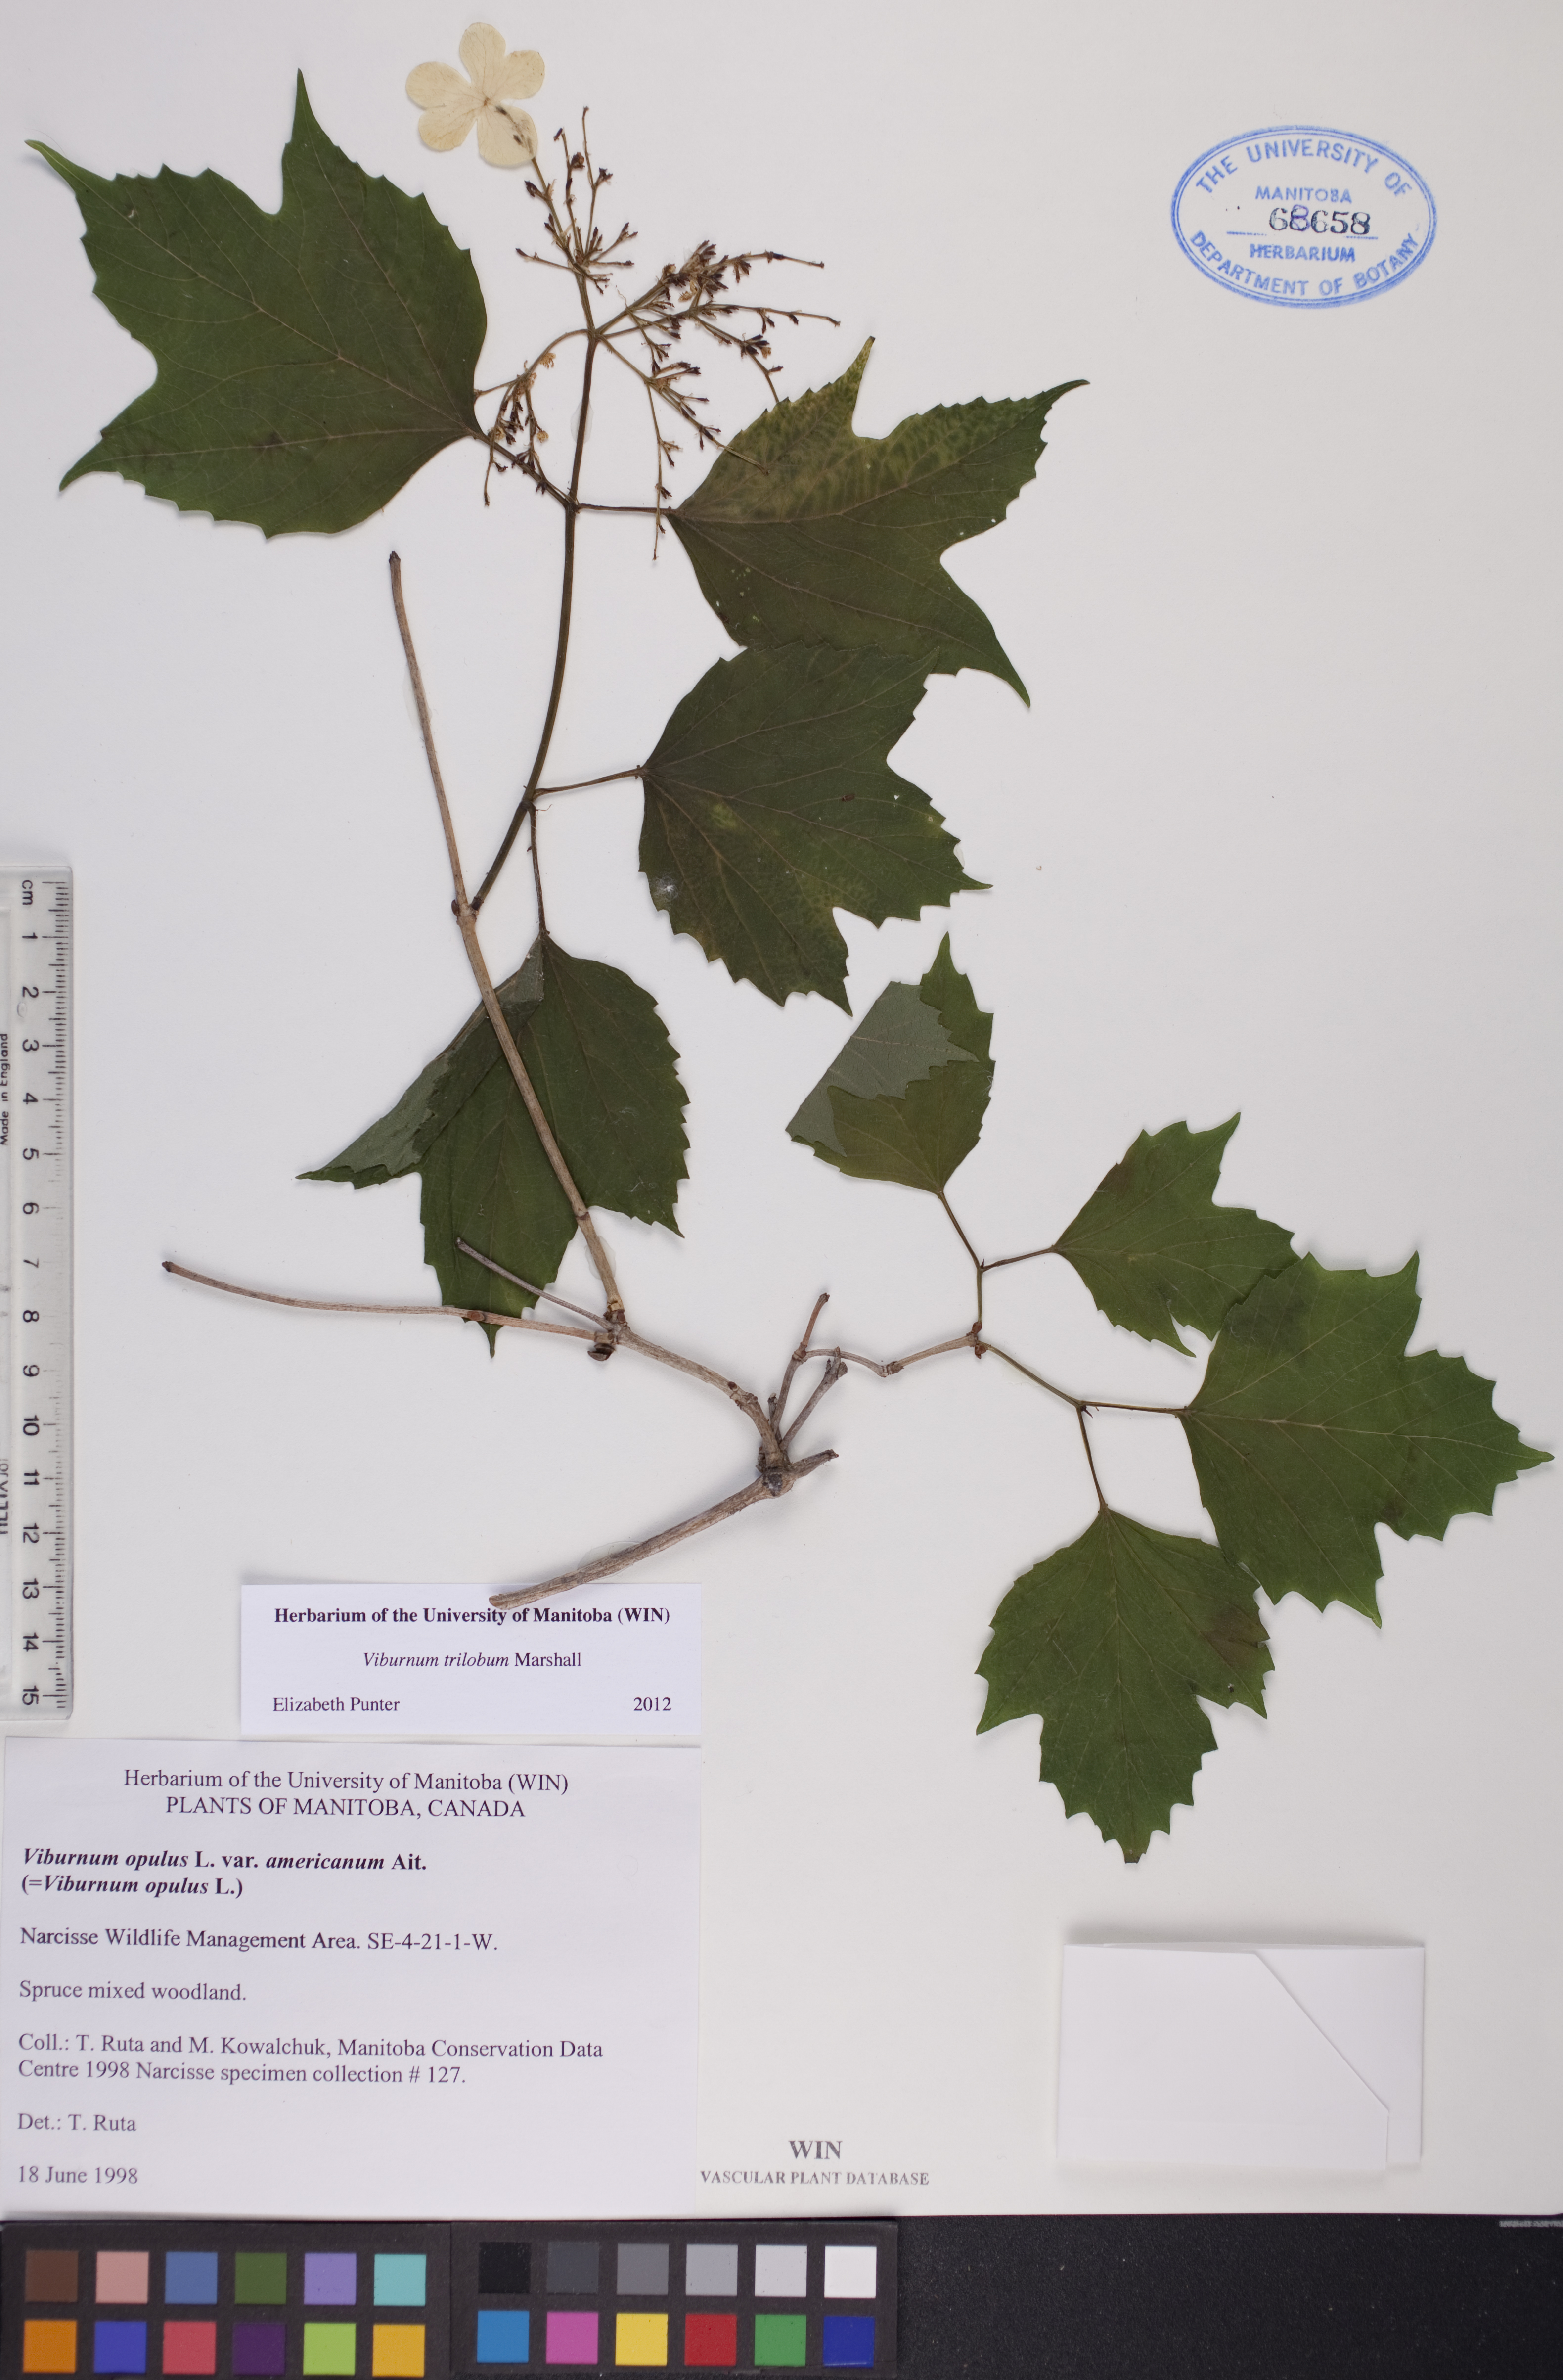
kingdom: Plantae
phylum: Tracheophyta
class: Magnoliopsida
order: Dipsacales
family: Viburnaceae
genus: Viburnum
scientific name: Viburnum trilobum
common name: American cranberrybush
